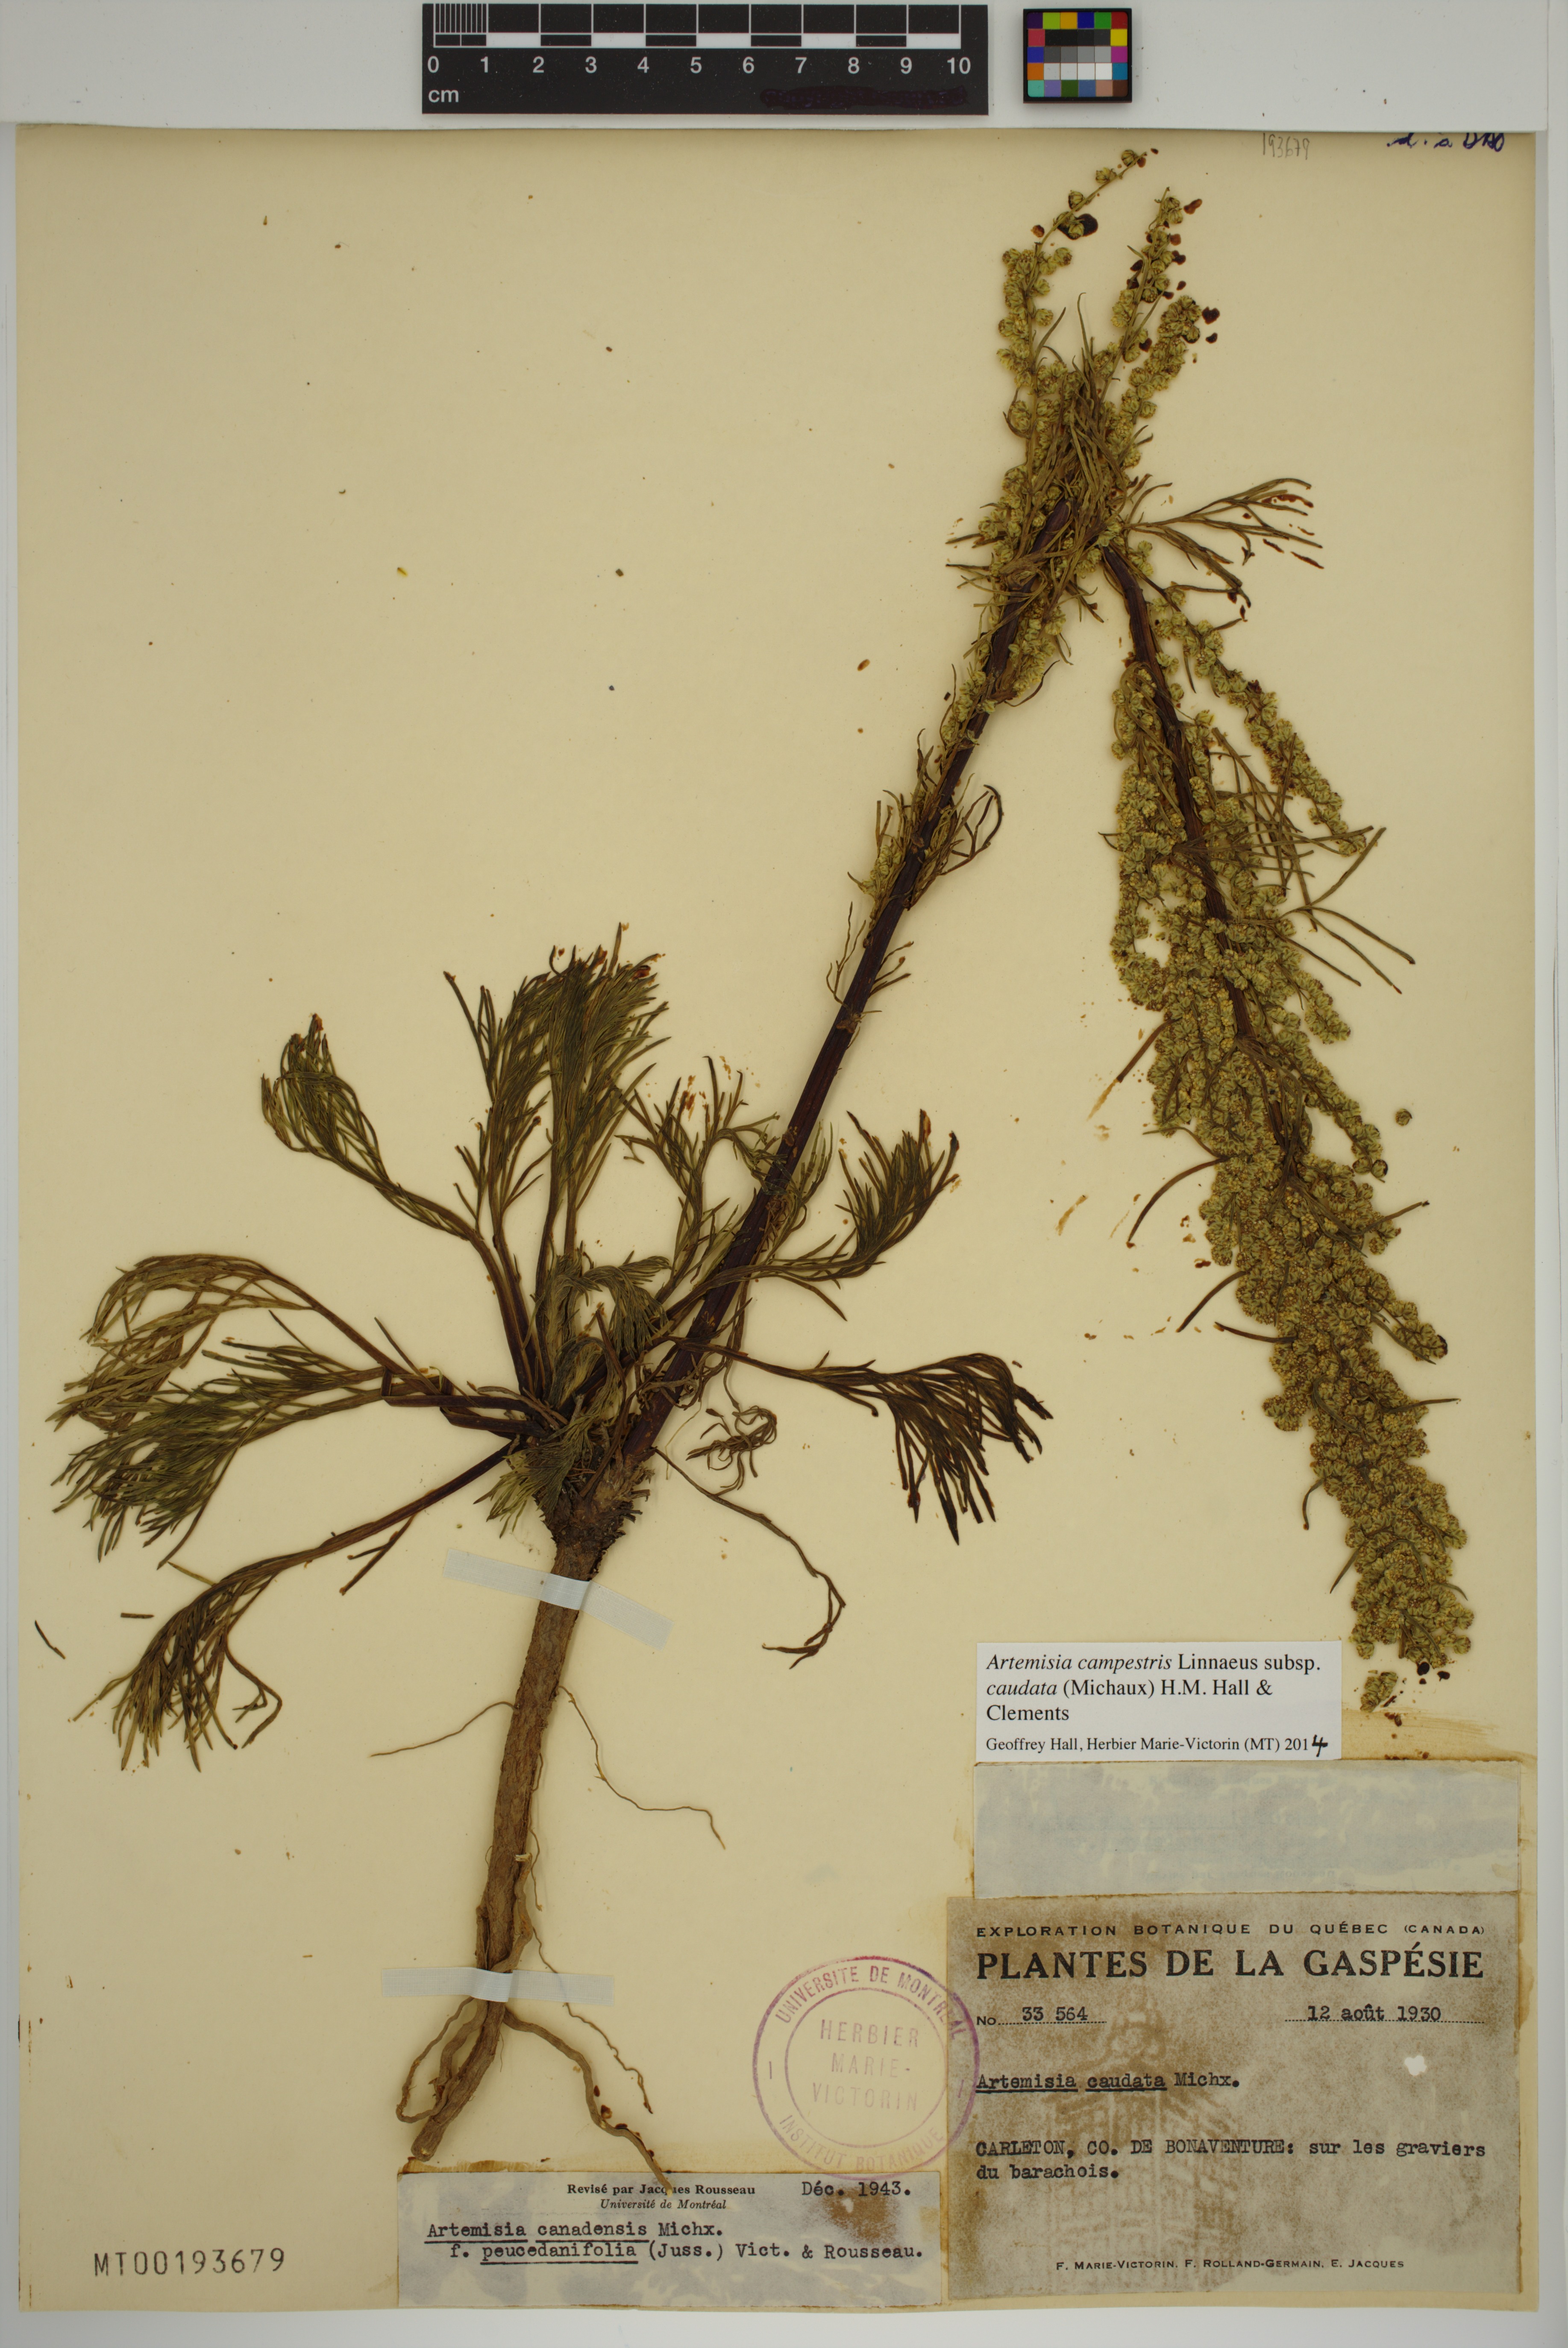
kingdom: Plantae
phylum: Tracheophyta
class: Magnoliopsida
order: Asterales
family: Asteraceae
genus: Artemisia
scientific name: Artemisia campestris
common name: Field wormwood
